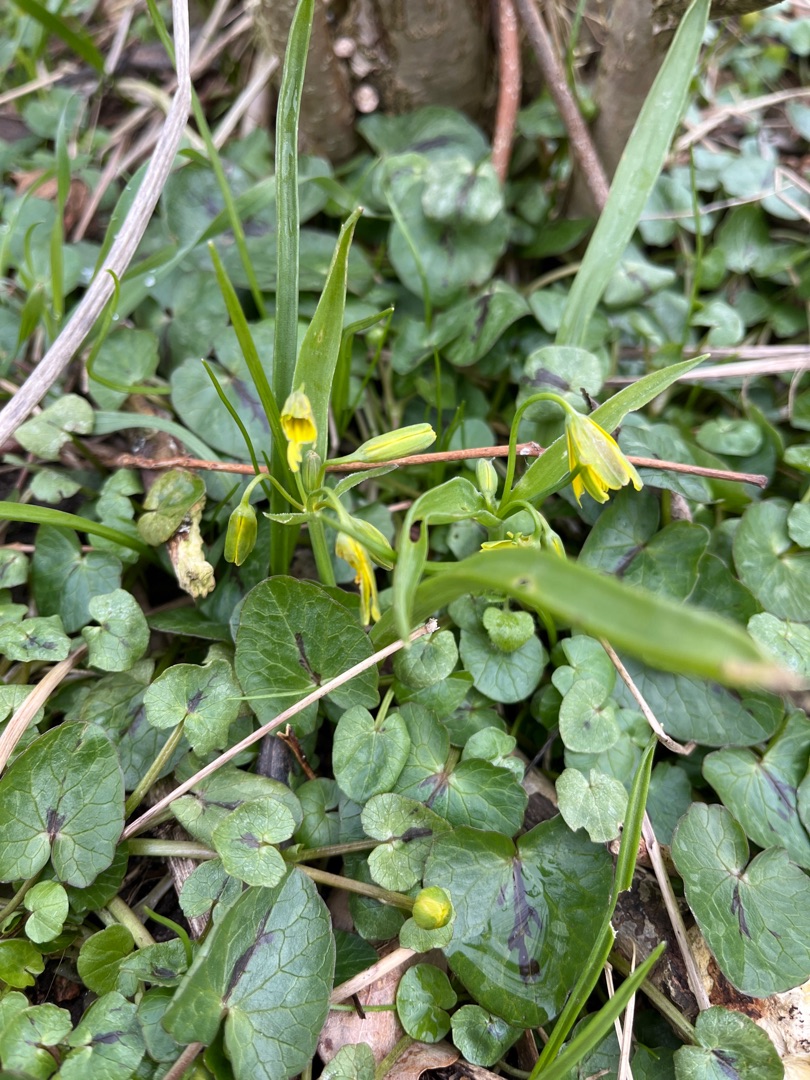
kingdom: Plantae
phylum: Tracheophyta
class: Liliopsida
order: Liliales
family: Liliaceae
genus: Gagea
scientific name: Gagea lutea
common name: Almindelig guldstjerne
